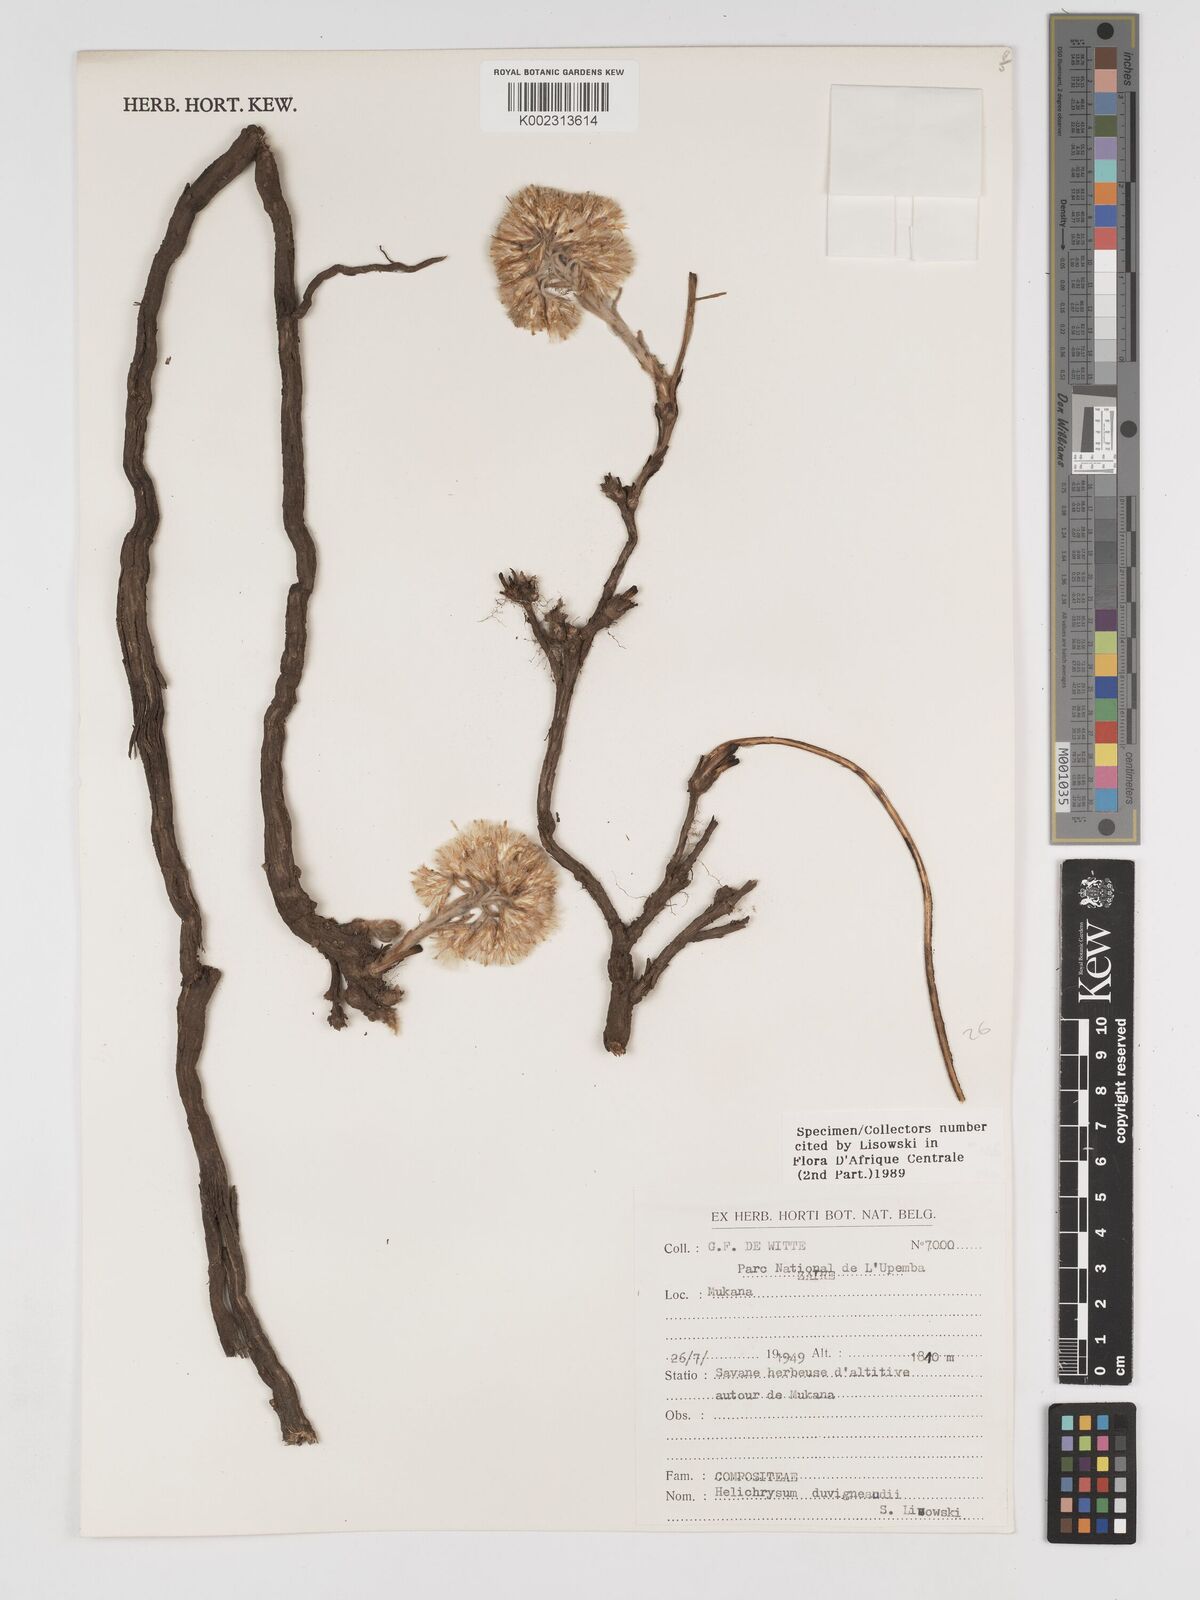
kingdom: Plantae
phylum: Tracheophyta
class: Magnoliopsida
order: Asterales
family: Asteraceae
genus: Helichrysum
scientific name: Helichrysum duvigneaudii
